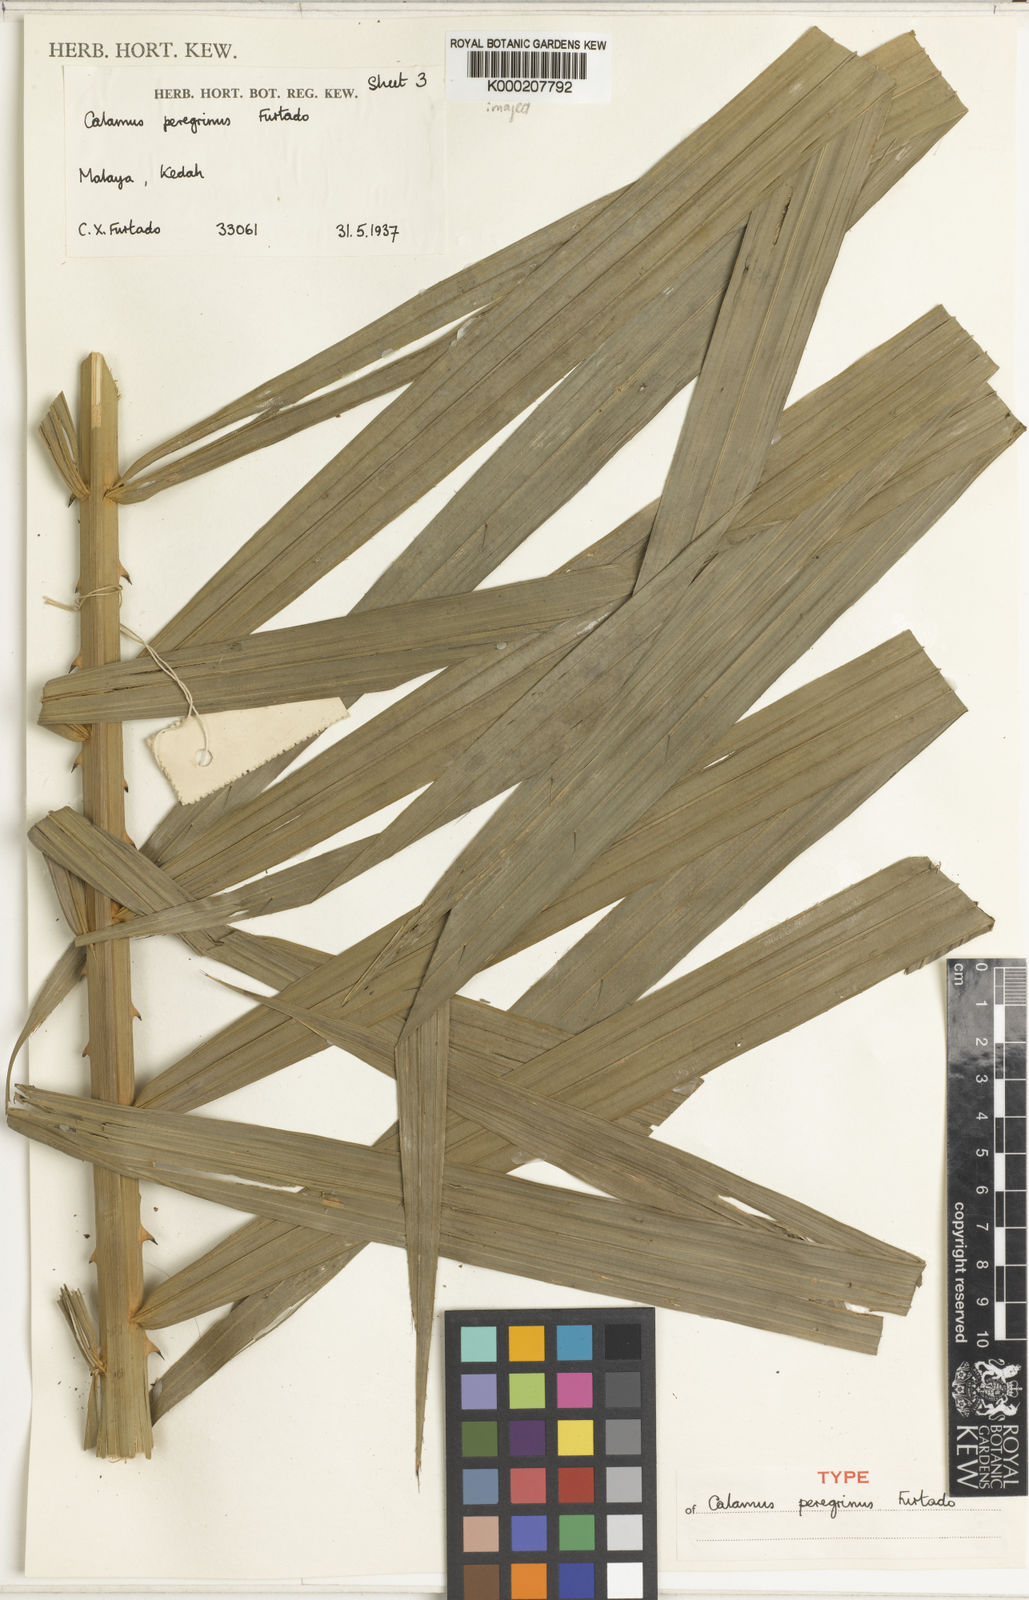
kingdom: Plantae
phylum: Tracheophyta
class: Liliopsida
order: Arecales
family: Arecaceae
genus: Calamus
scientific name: Calamus peregrinus
